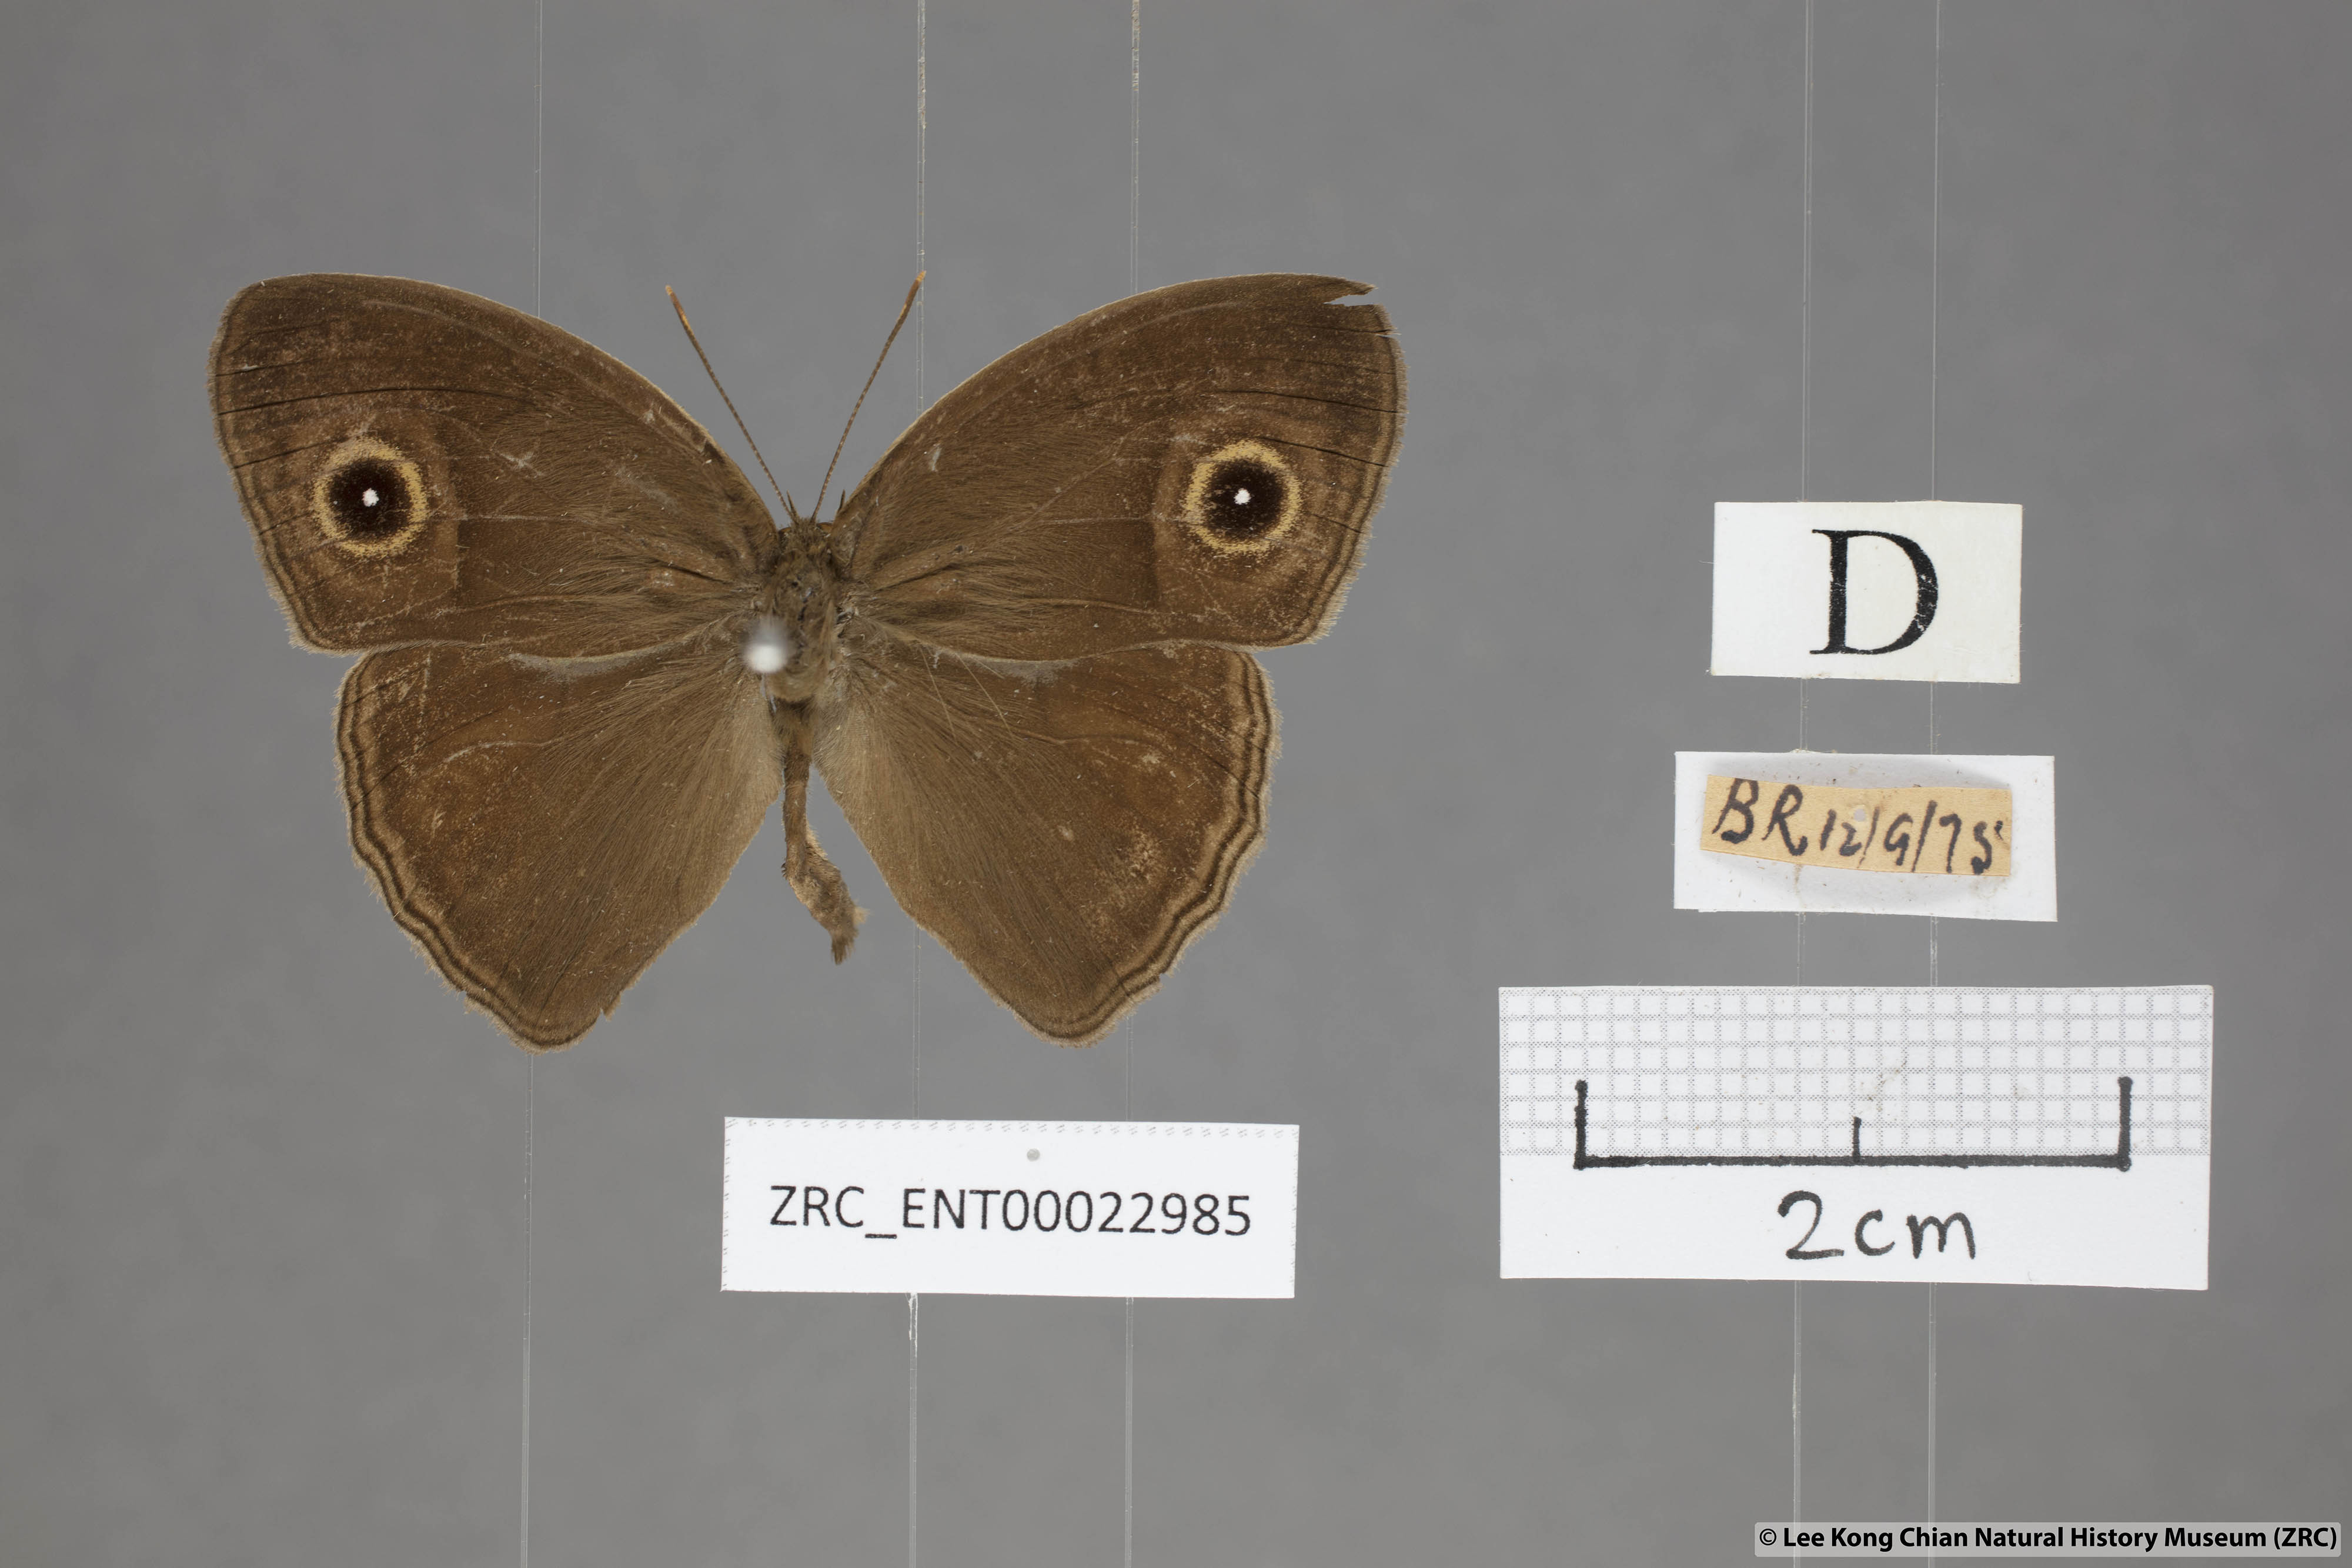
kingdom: Animalia
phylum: Arthropoda
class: Insecta
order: Lepidoptera
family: Nymphalidae
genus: Mycalesis
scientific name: Mycalesis perseoides
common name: Burmese bushbrown
